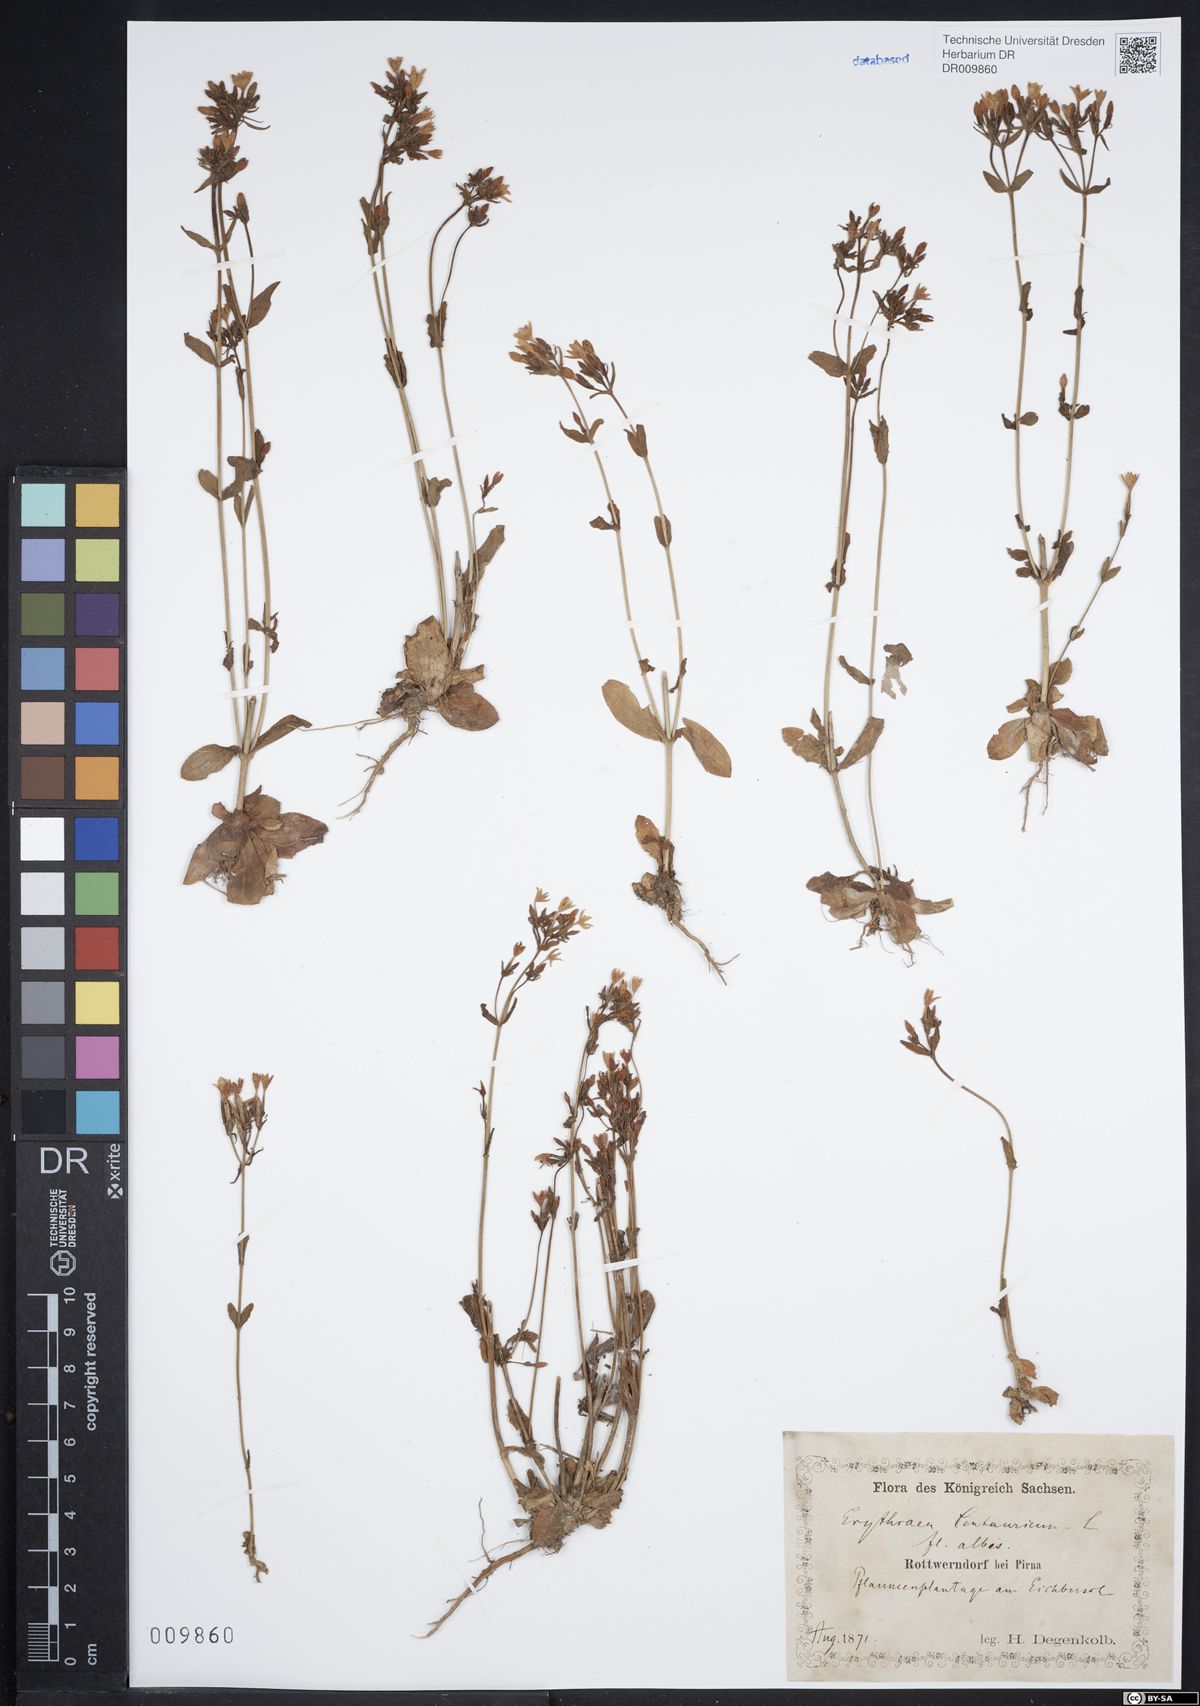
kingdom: Plantae
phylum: Tracheophyta
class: Magnoliopsida
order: Gentianales
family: Gentianaceae
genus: Centaurium
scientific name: Centaurium erythraea
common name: Common centaury
